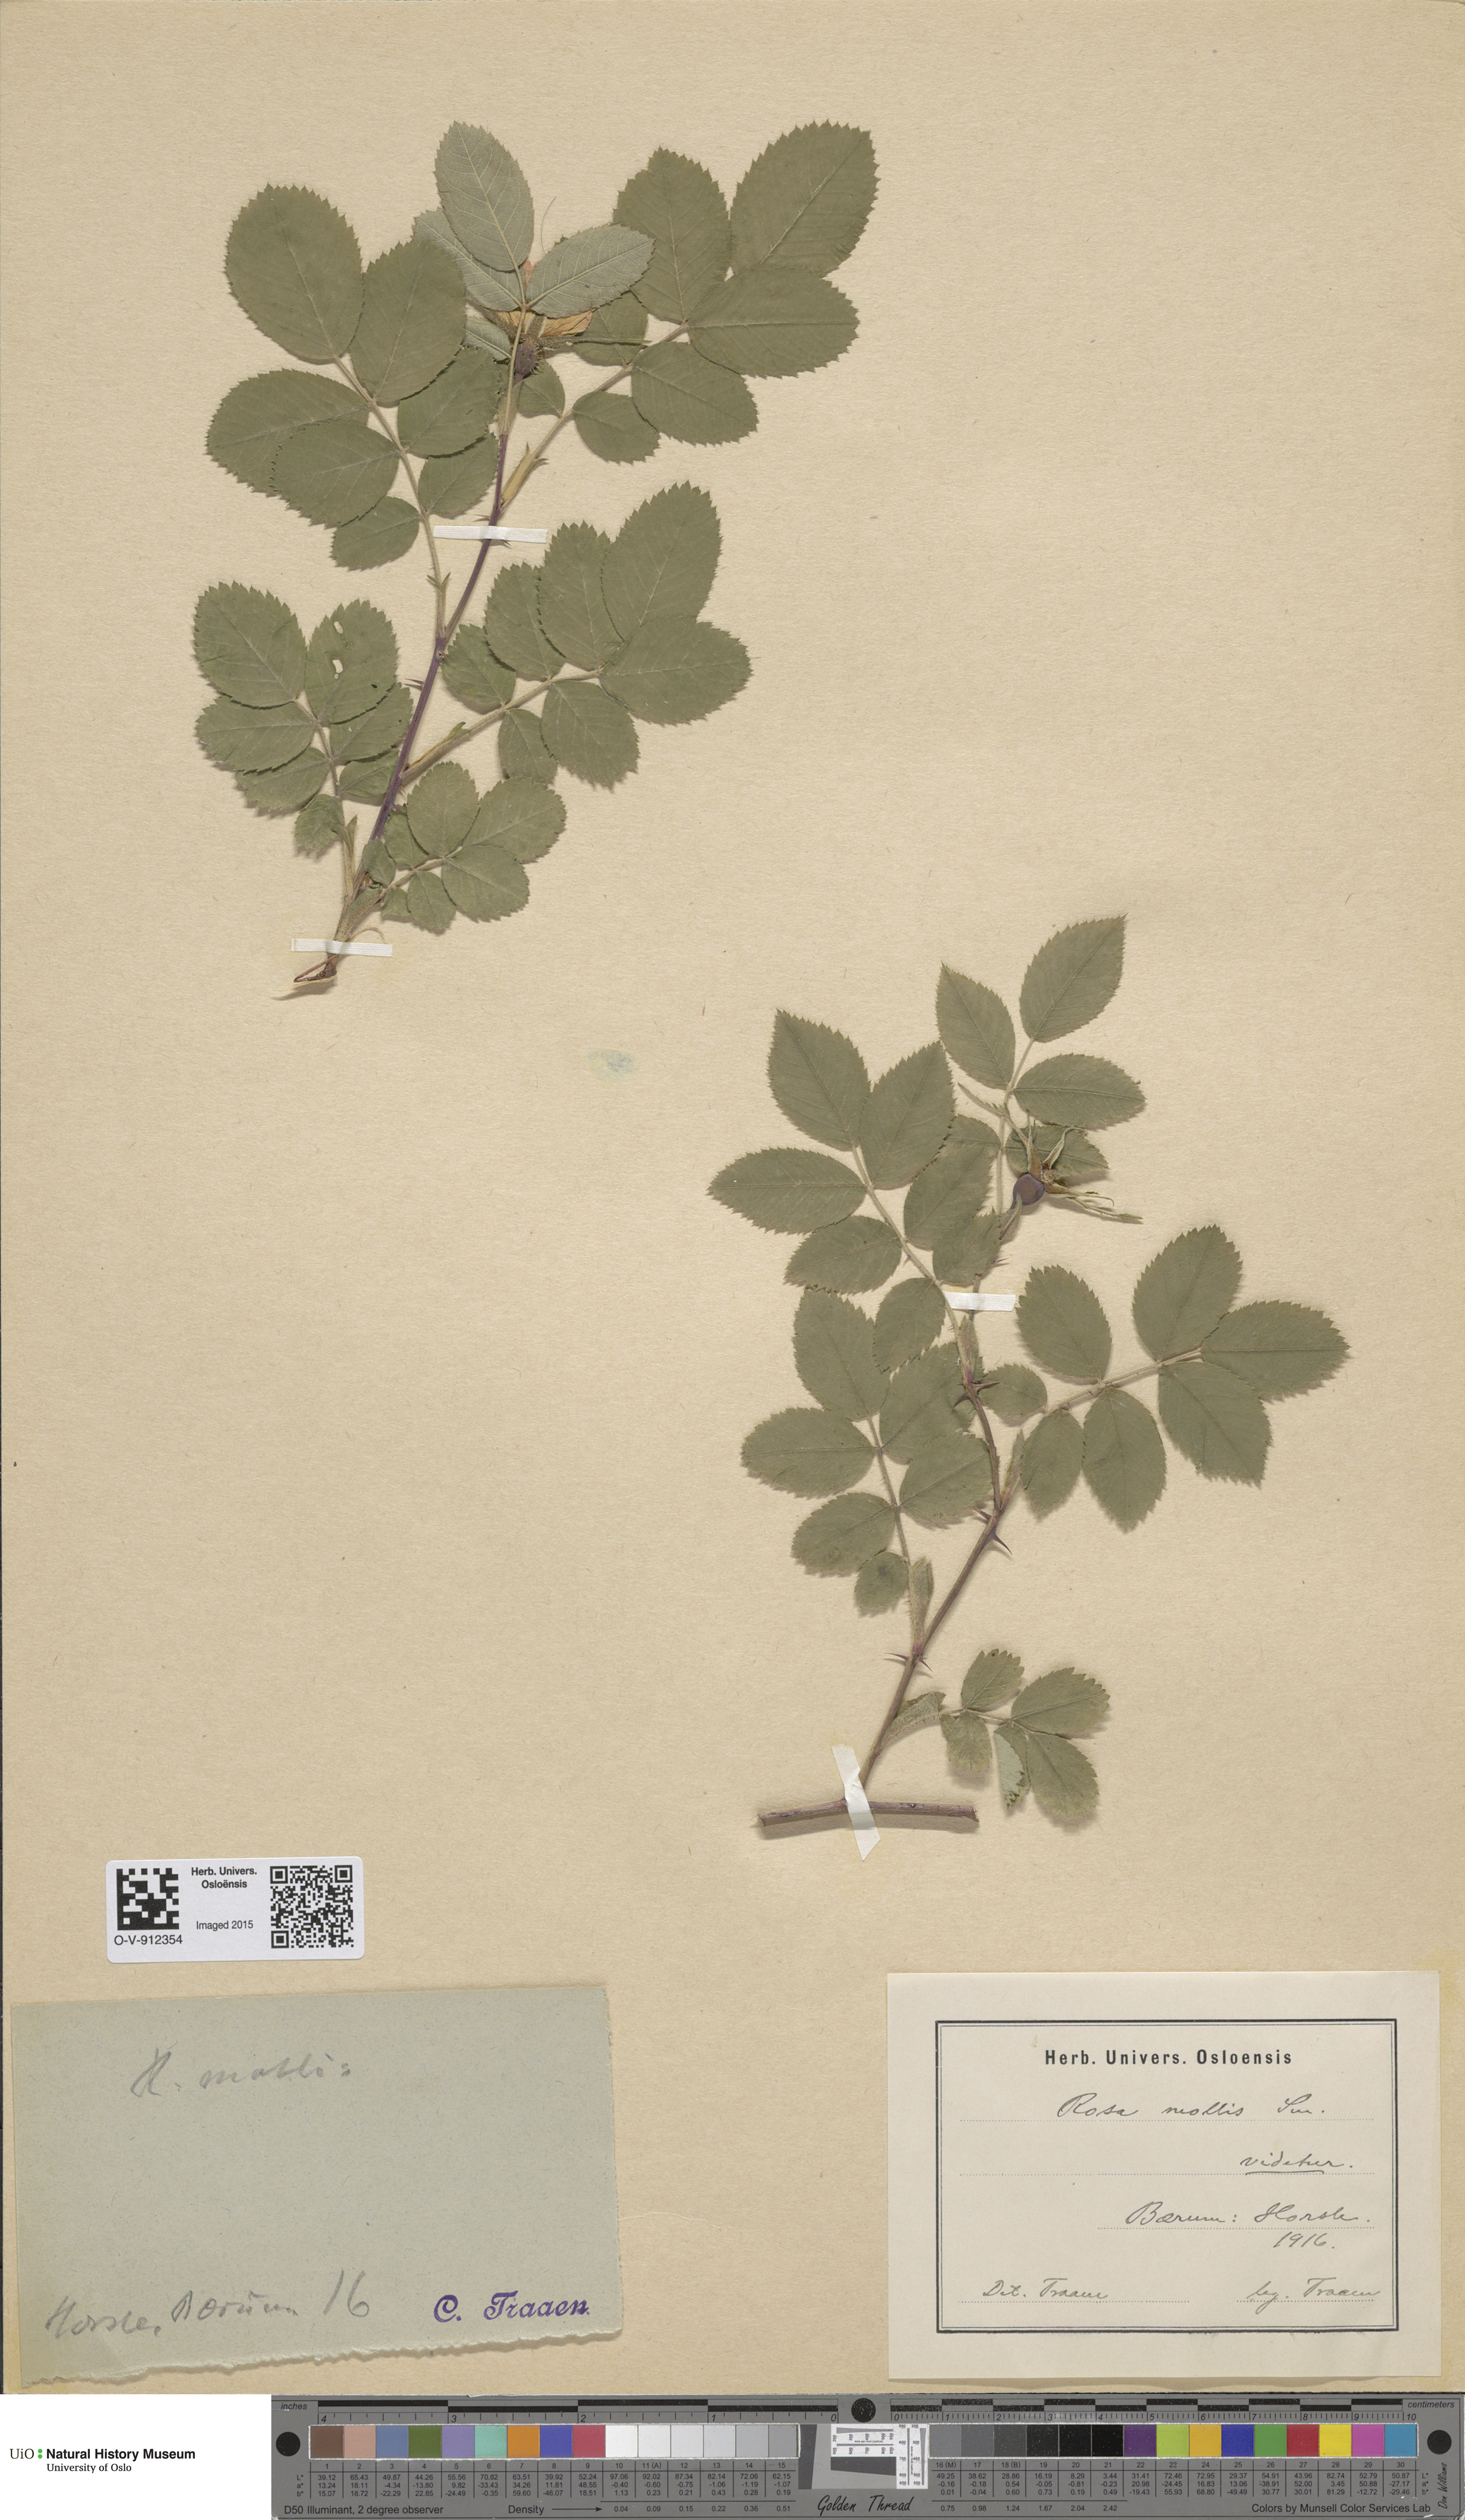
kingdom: Plantae
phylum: Tracheophyta
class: Magnoliopsida
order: Rosales
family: Rosaceae
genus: Rosa
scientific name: Rosa mollis
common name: Rose
